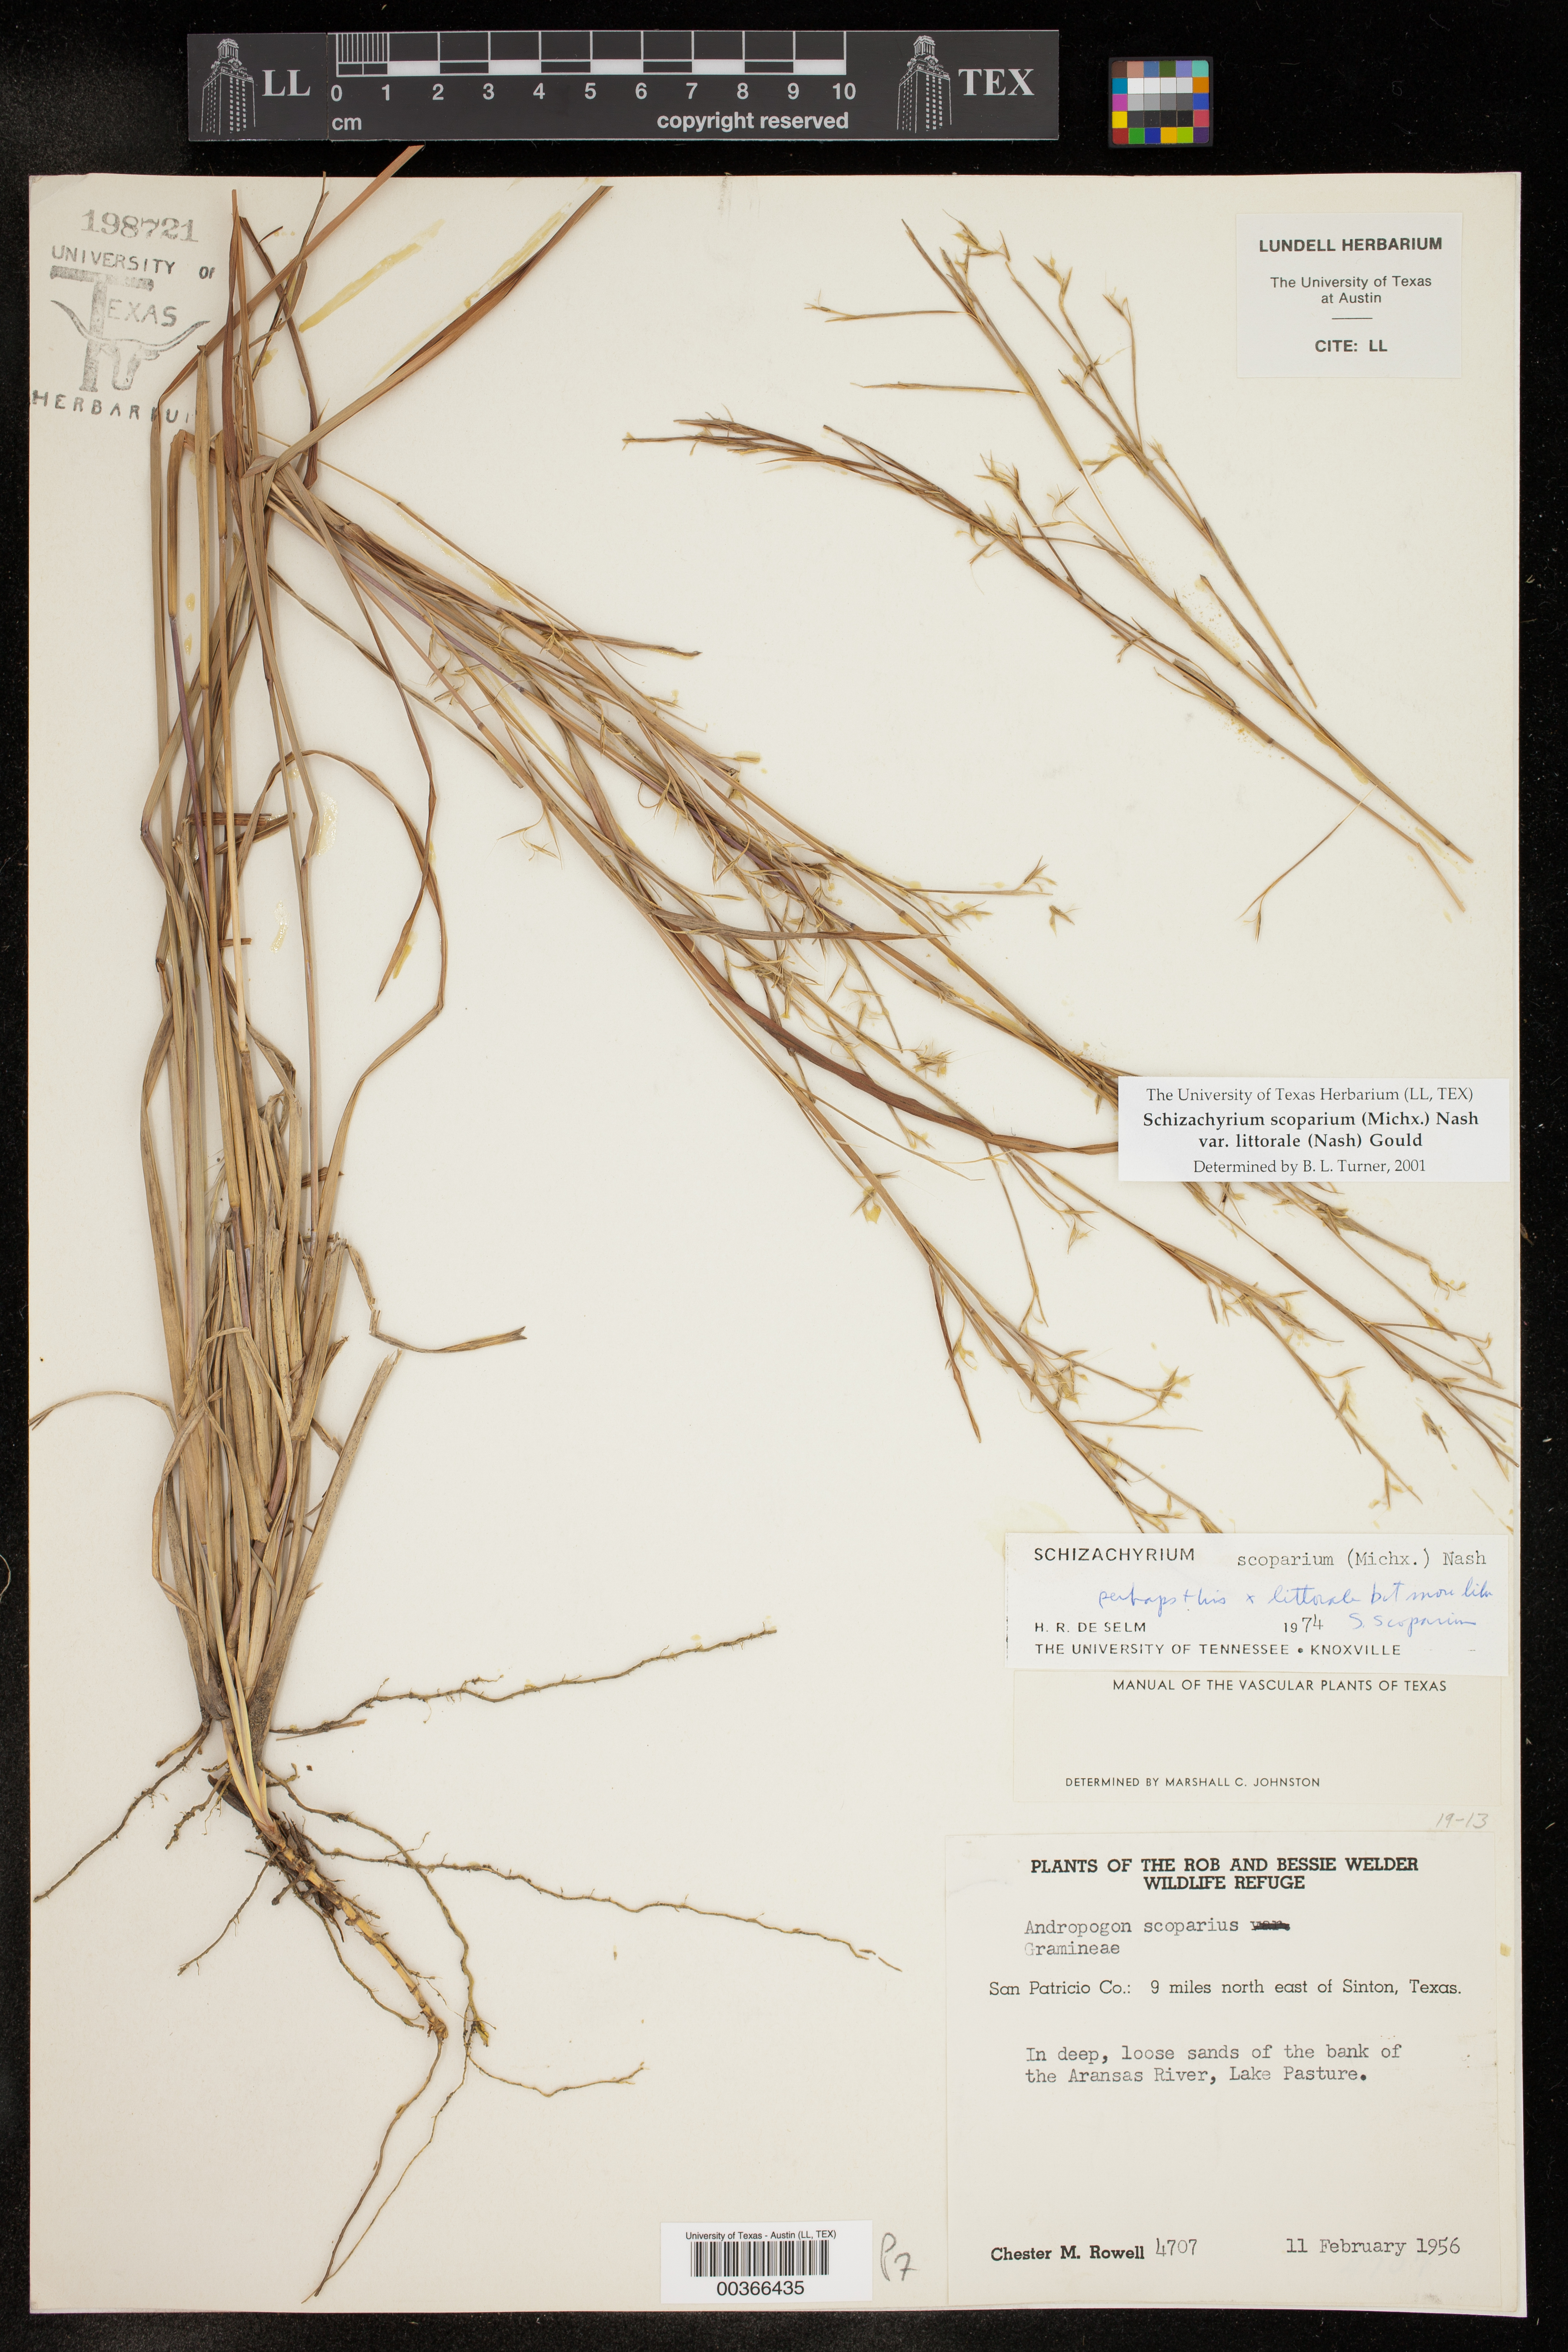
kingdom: Plantae
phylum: Tracheophyta
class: Liliopsida
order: Poales
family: Poaceae
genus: Schizachyrium
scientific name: Schizachyrium scoparium
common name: Little bluestem
